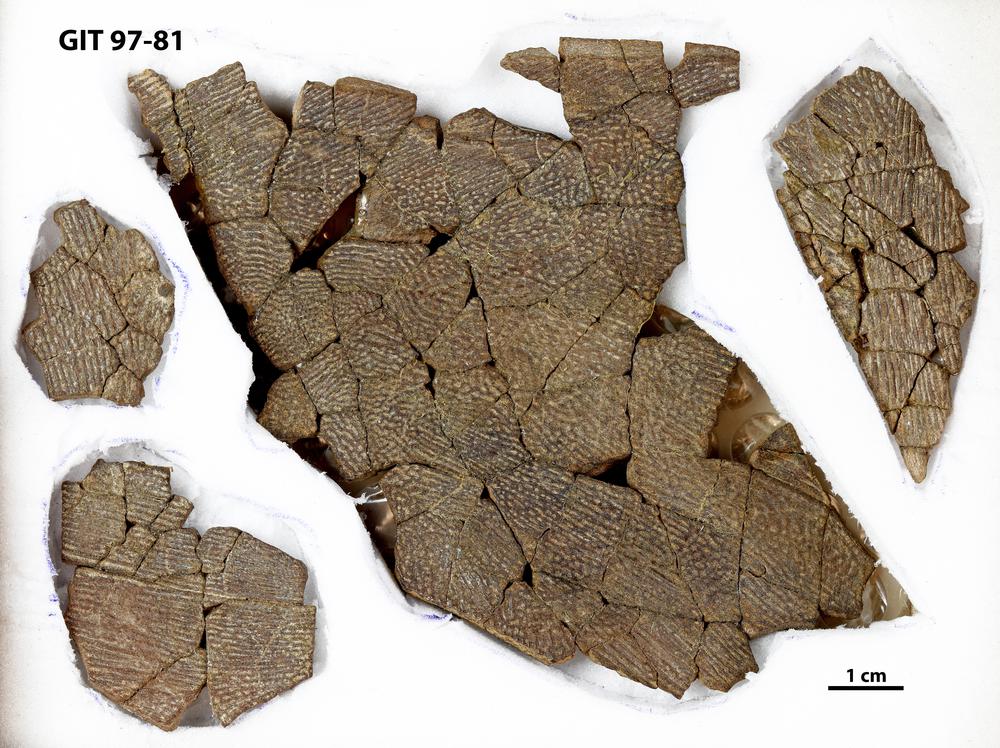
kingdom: Animalia
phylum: Chordata
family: Holonematidae
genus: Holonema
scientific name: Holonema
